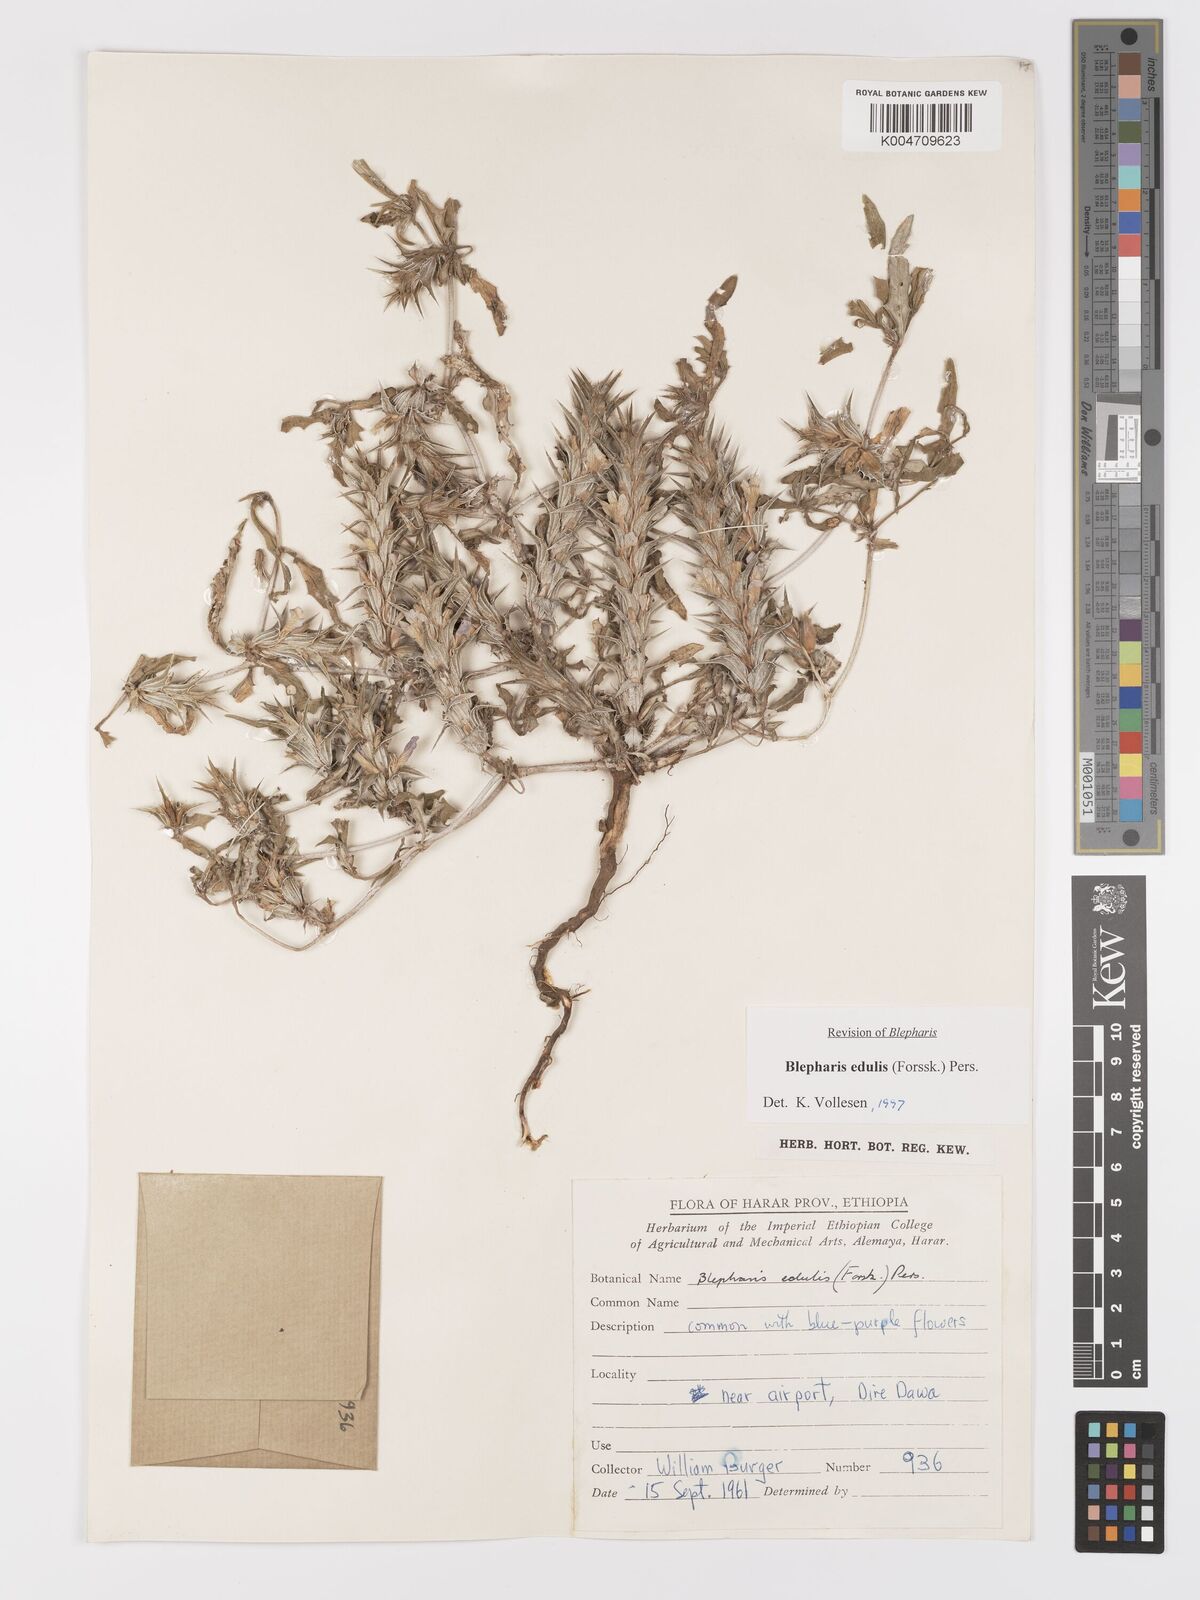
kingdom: Plantae
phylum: Tracheophyta
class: Magnoliopsida
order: Lamiales
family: Acanthaceae
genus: Blepharis
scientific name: Blepharis edulis
